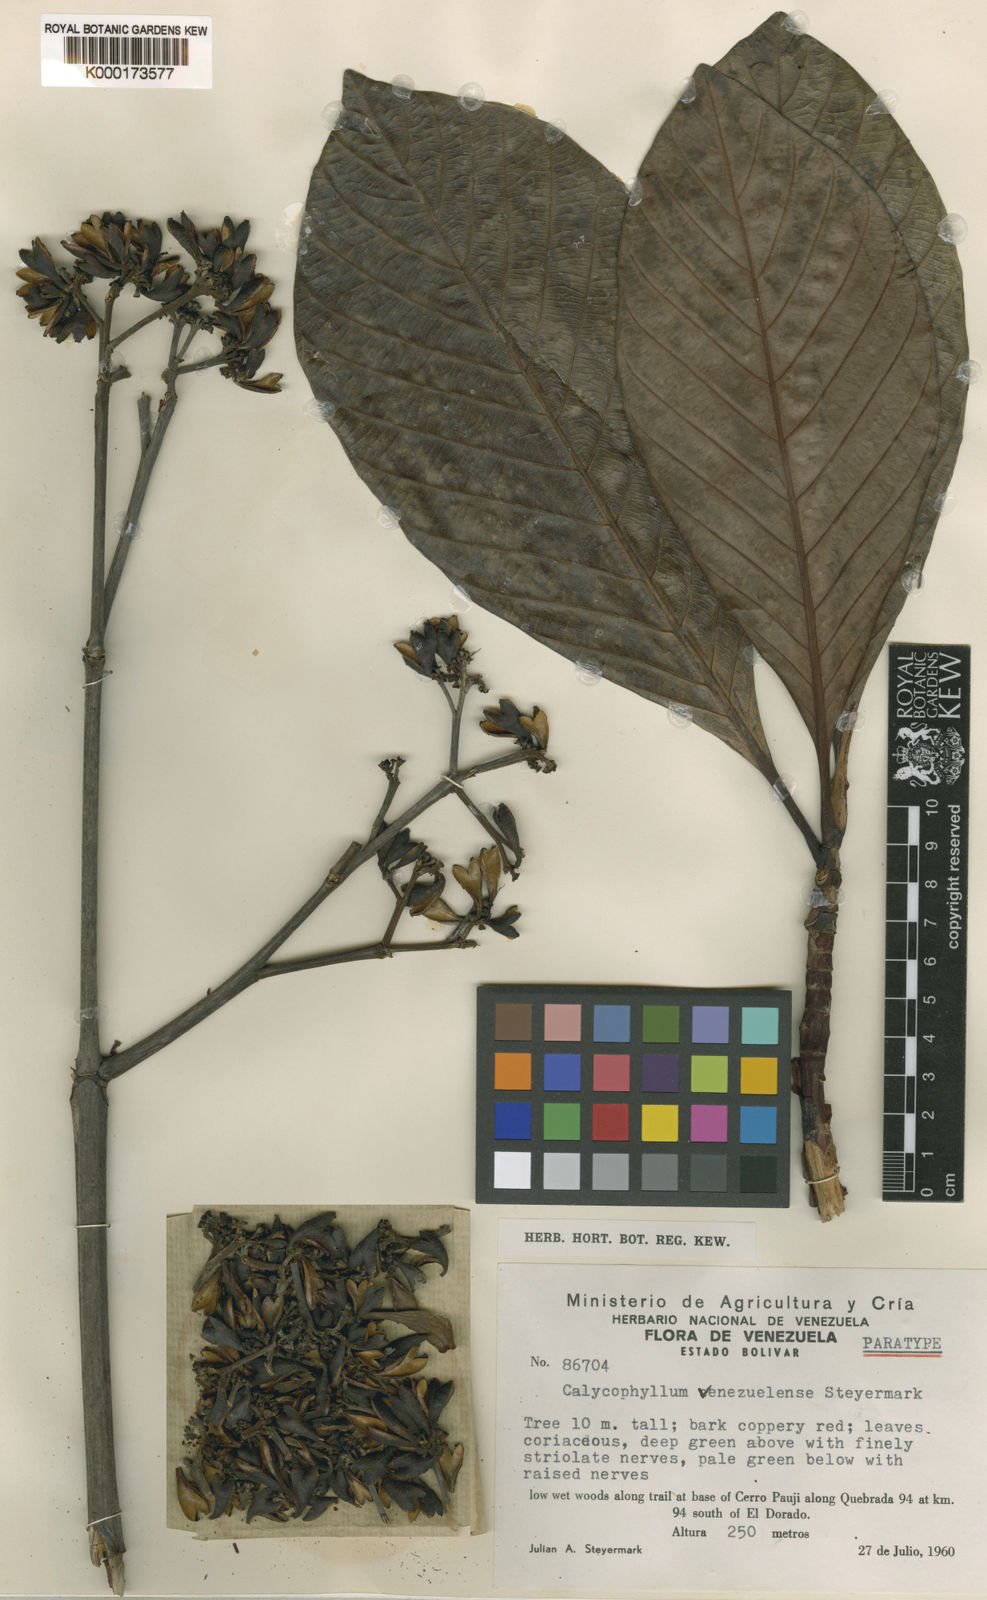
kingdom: Plantae
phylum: Tracheophyta
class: Magnoliopsida
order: Gentianales
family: Rubiaceae
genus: Calycophyllum
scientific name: Calycophyllum venezuelense
